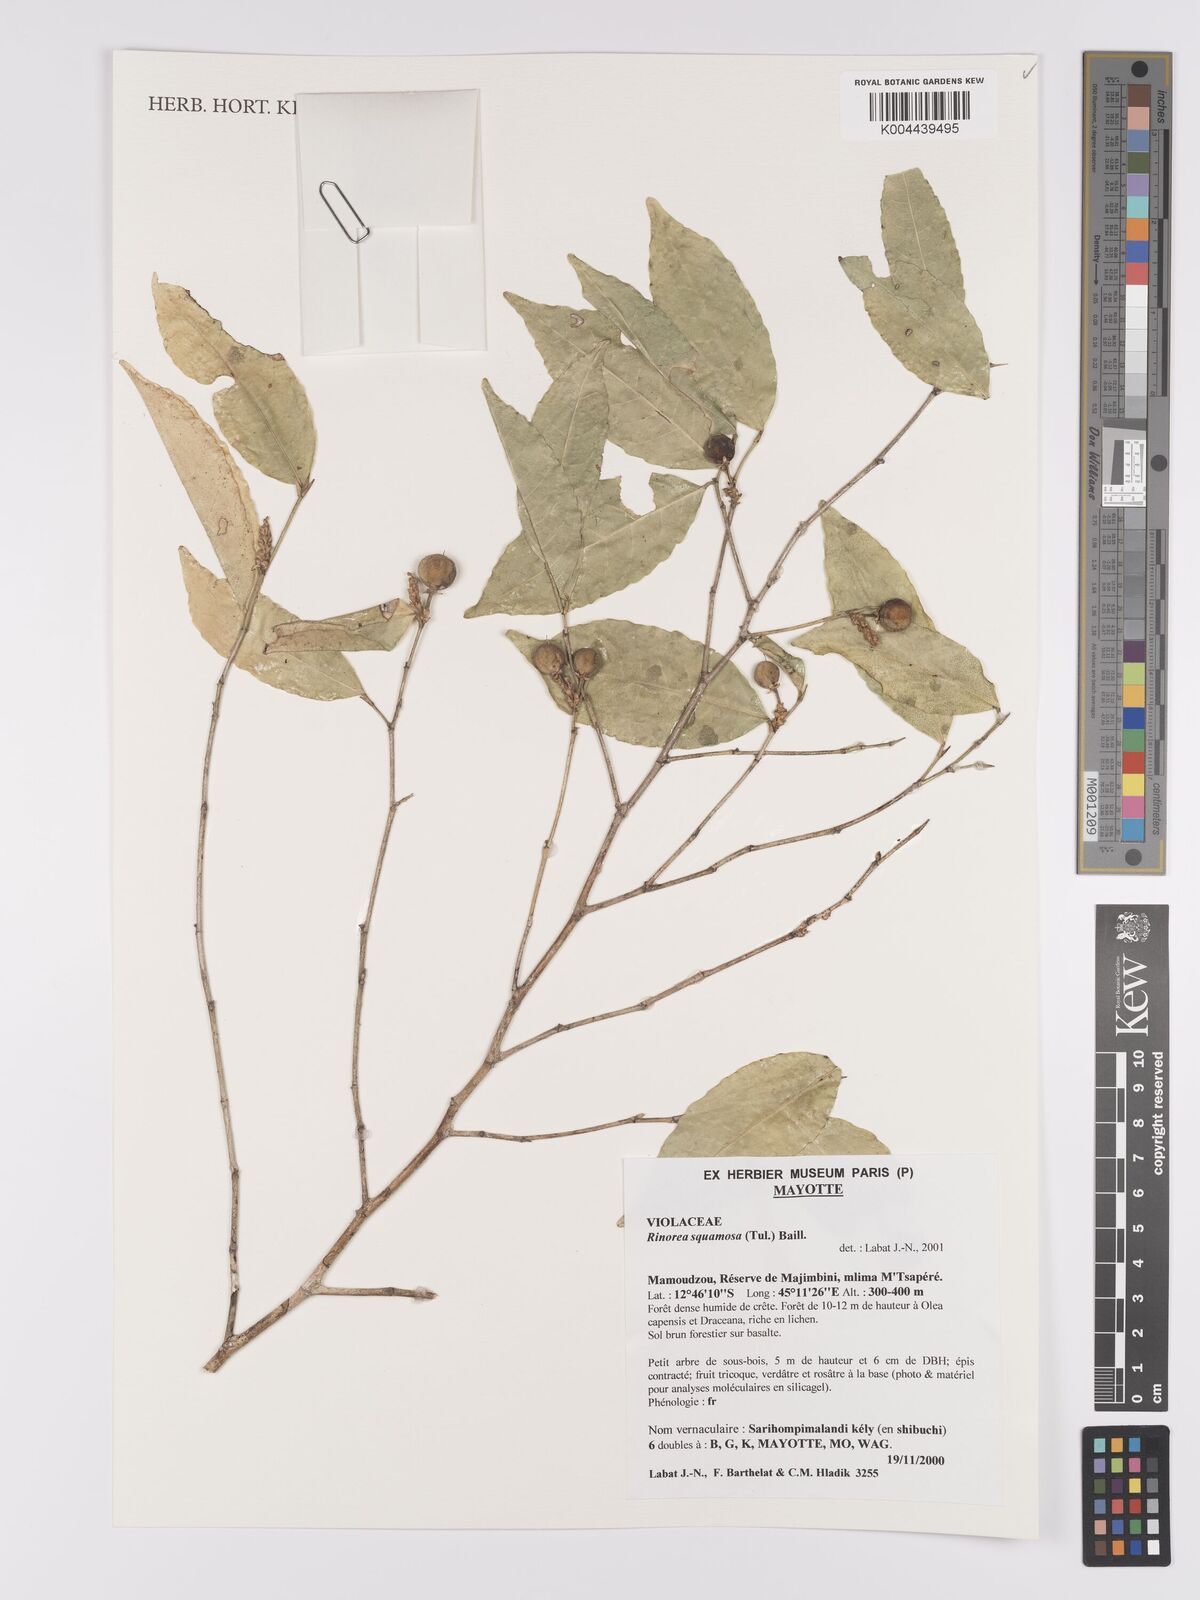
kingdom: Plantae
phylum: Tracheophyta
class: Magnoliopsida
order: Malpighiales
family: Violaceae
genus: Rinorea
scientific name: Rinorea squamosa
